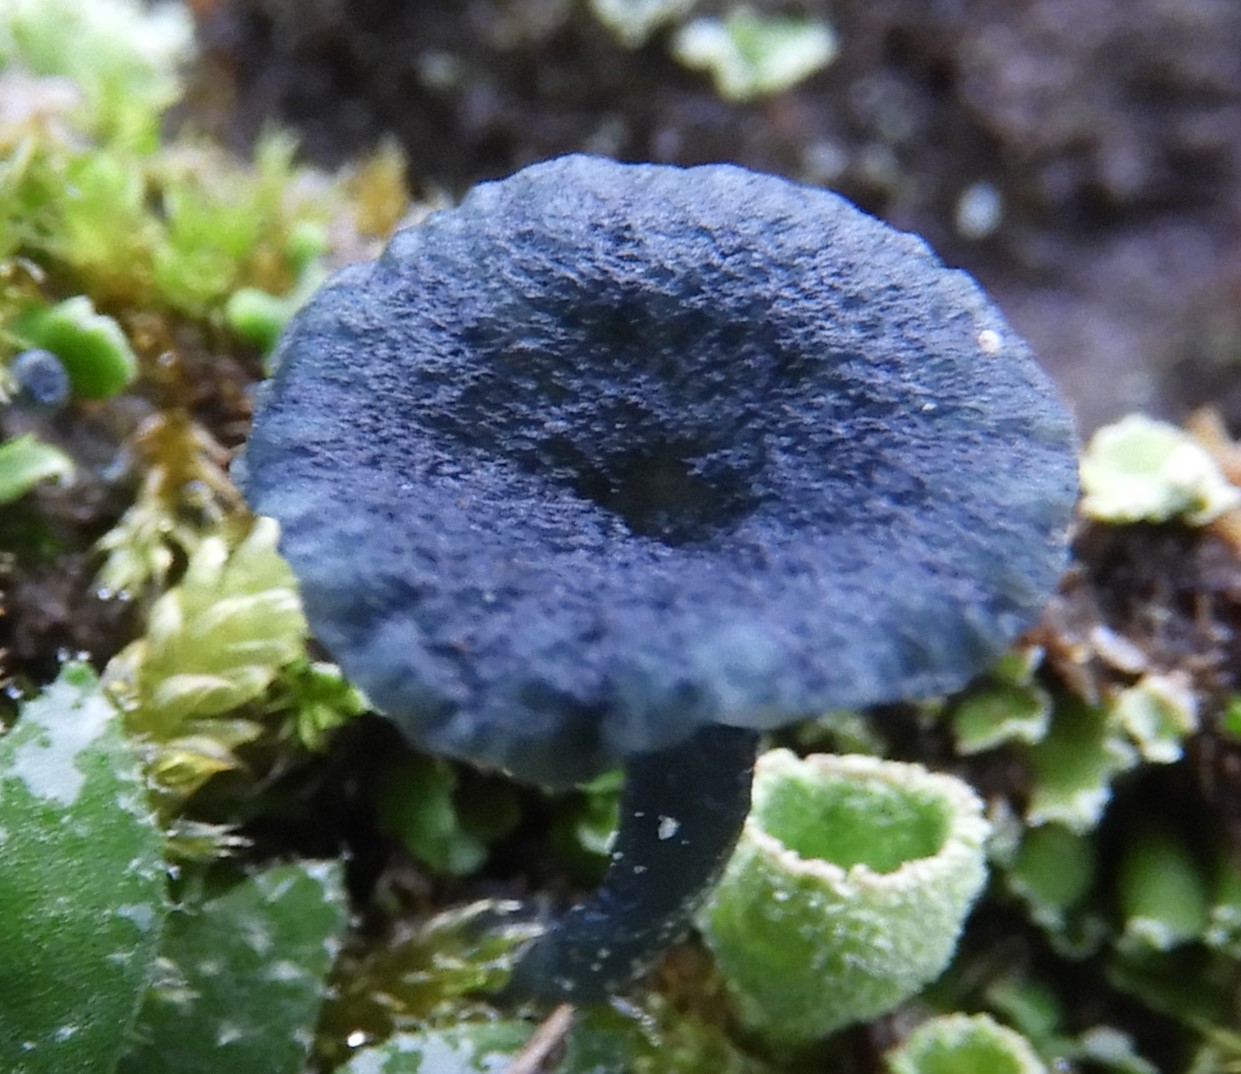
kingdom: Fungi
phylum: Basidiomycota
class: Agaricomycetes
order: Agaricales
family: Hygrophoraceae
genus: Arrhenia
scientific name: Arrhenia chlorocyanea
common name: blågrøn fontænehat
